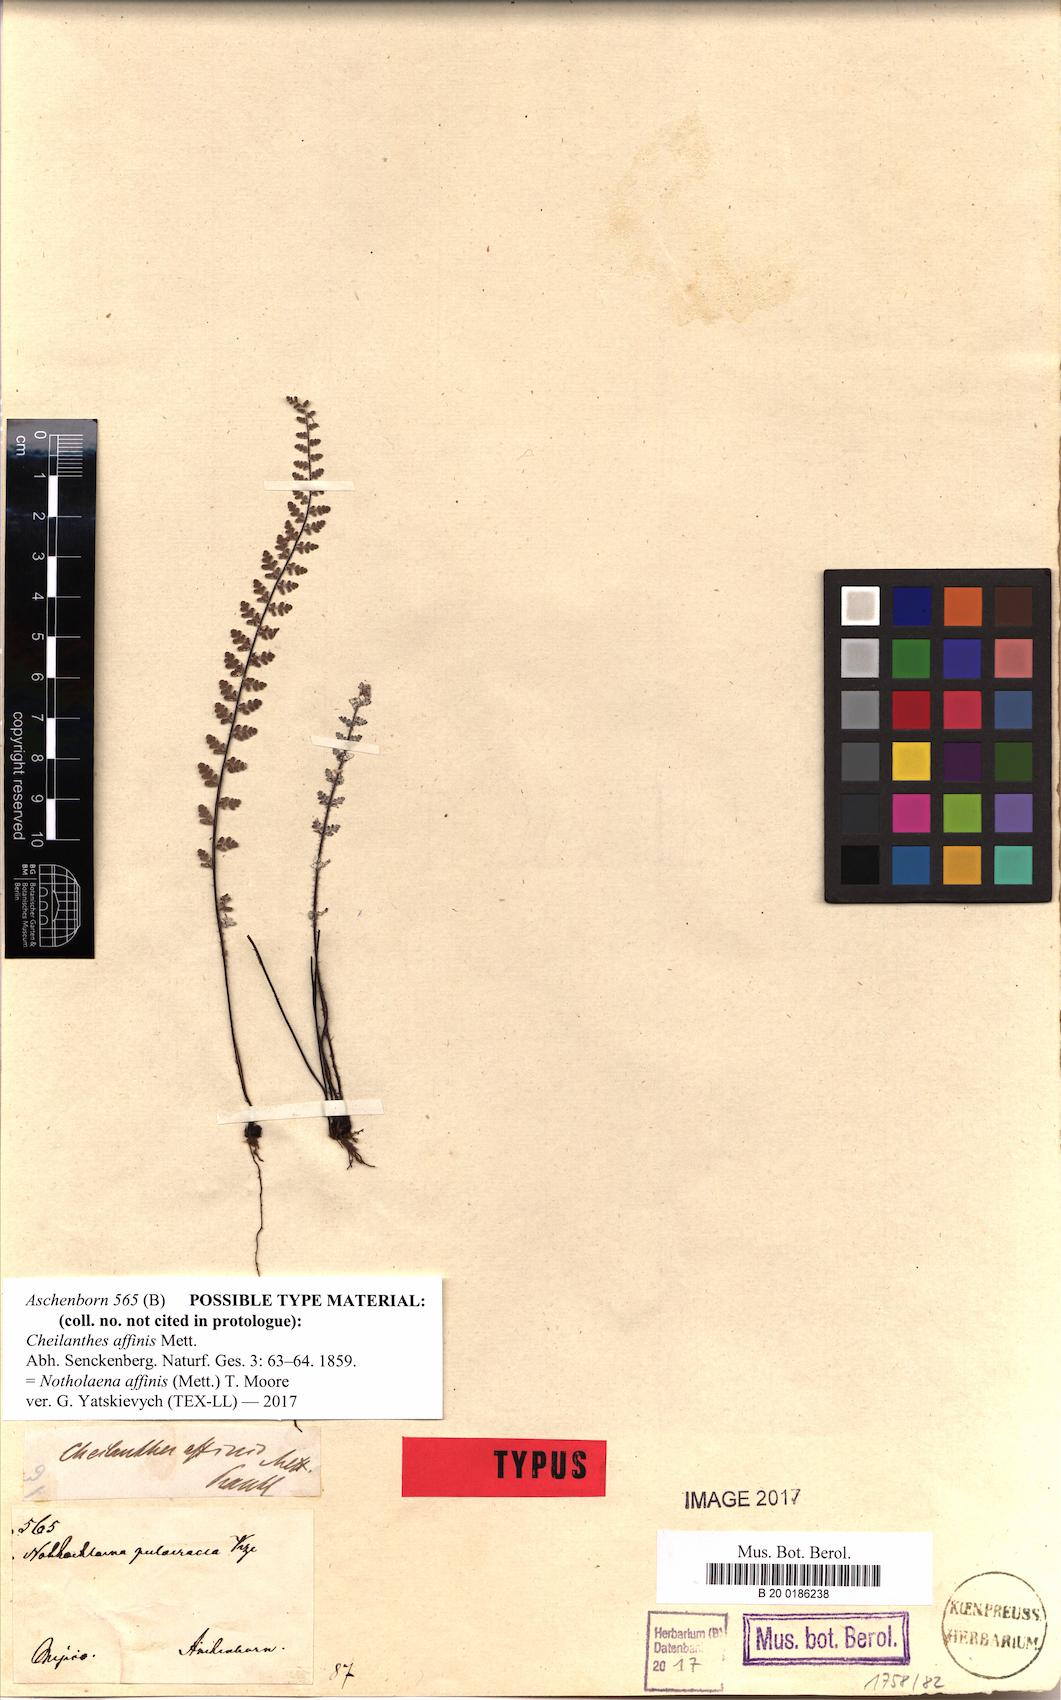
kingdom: Plantae
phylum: Tracheophyta
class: Polypodiopsida
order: Polypodiales
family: Pteridaceae
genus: Notholaena
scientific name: Notholaena affinis
